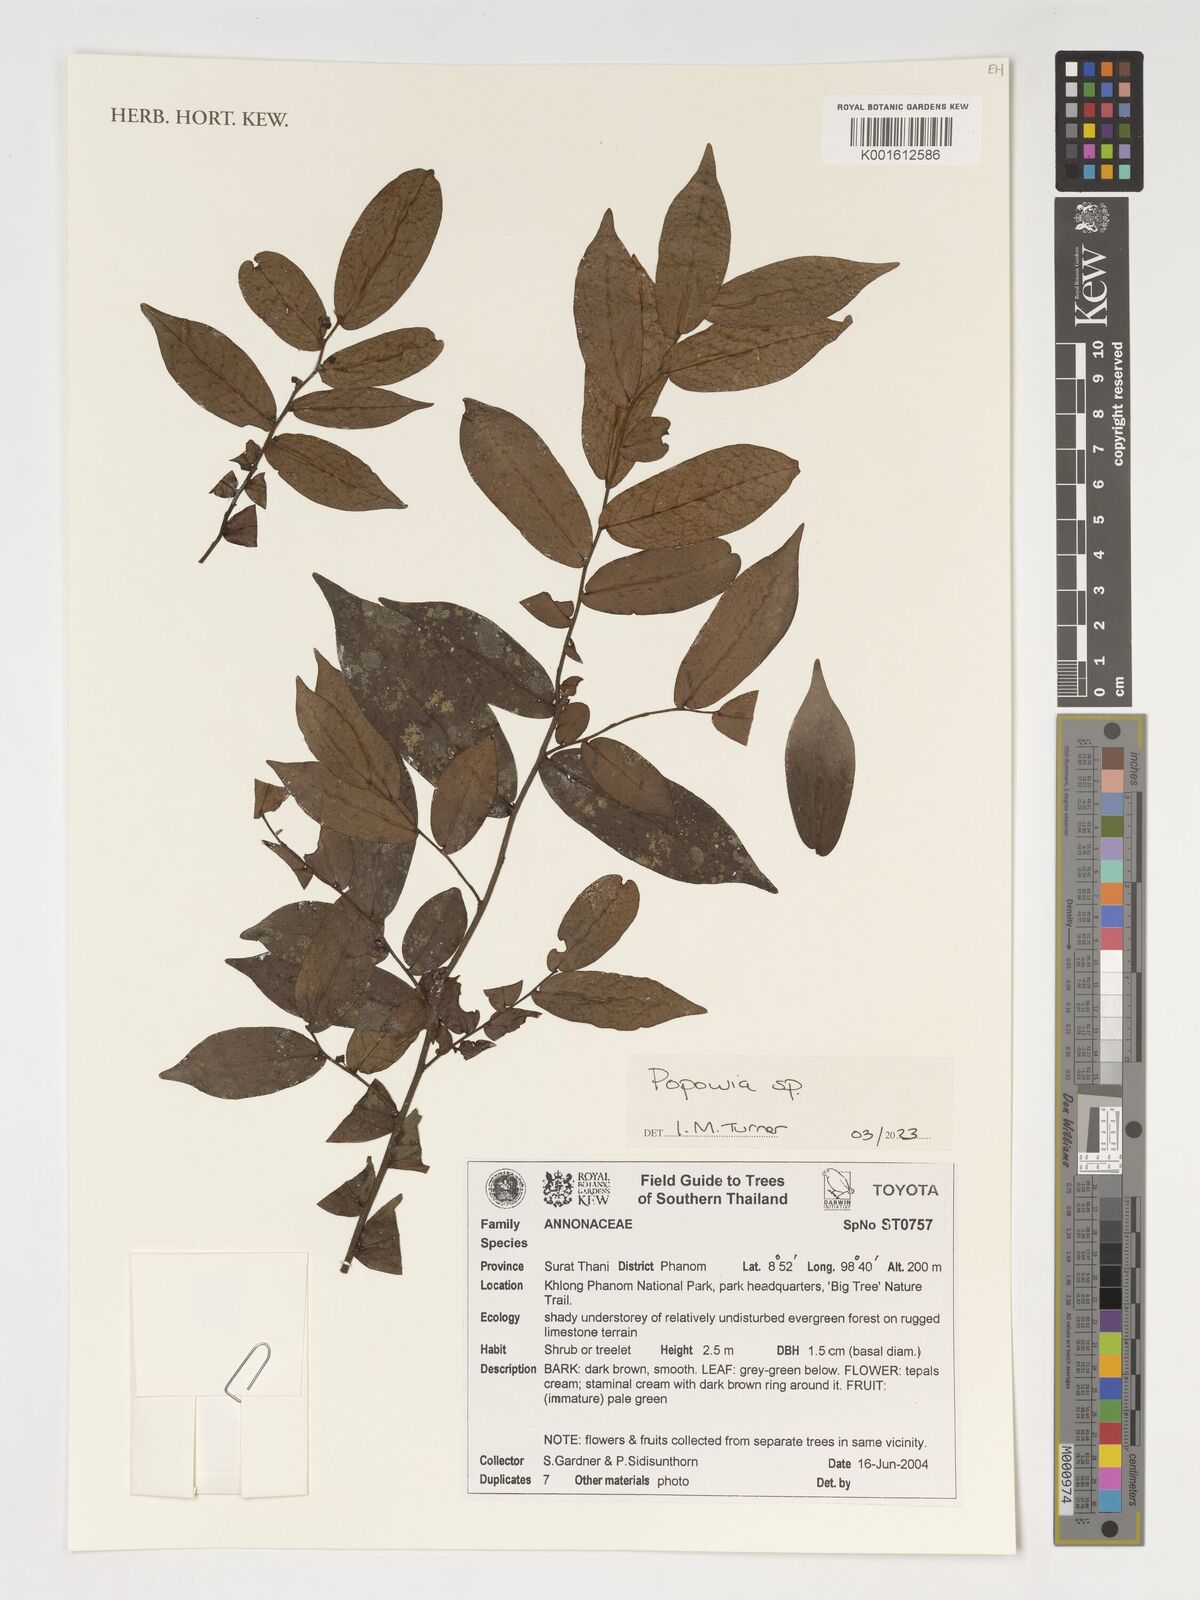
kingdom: Plantae
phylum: Tracheophyta
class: Magnoliopsida
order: Magnoliales
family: Annonaceae
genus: Popowia
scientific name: Popowia
